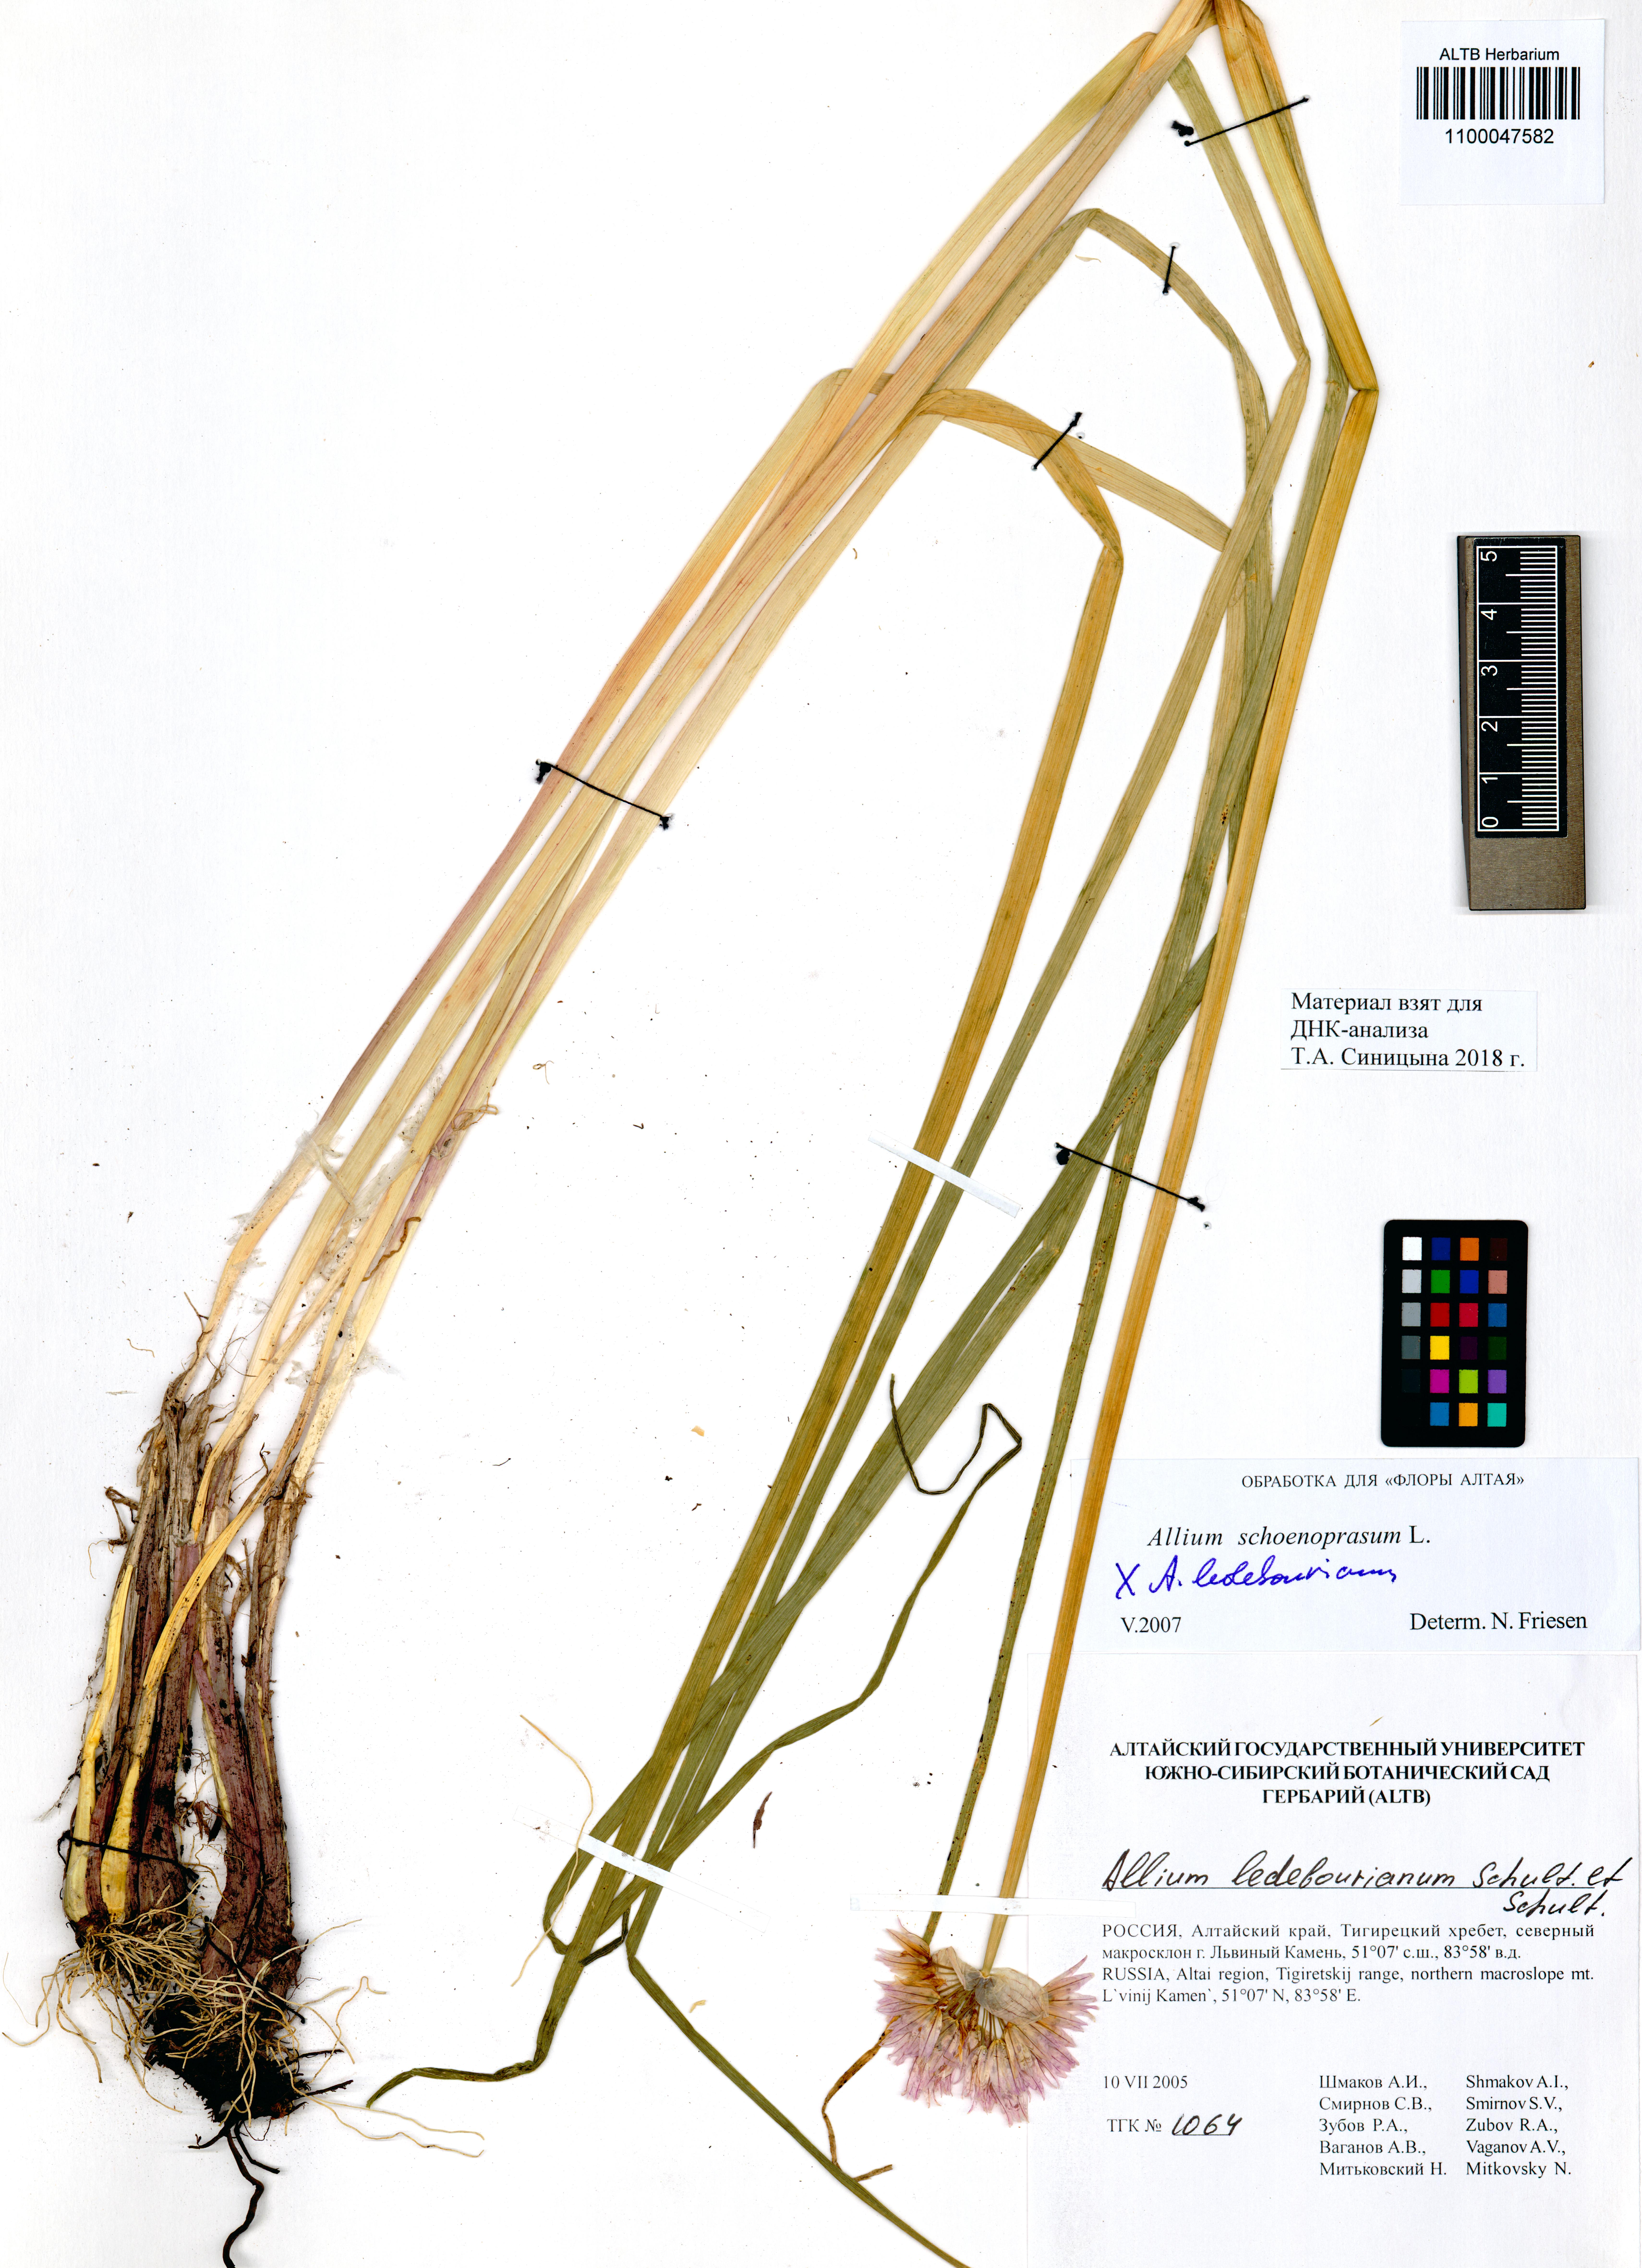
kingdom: Plantae
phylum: Tracheophyta
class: Liliopsida
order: Asparagales
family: Amaryllidaceae
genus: Allium
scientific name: Allium ledebourianum
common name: Ledebour chive
